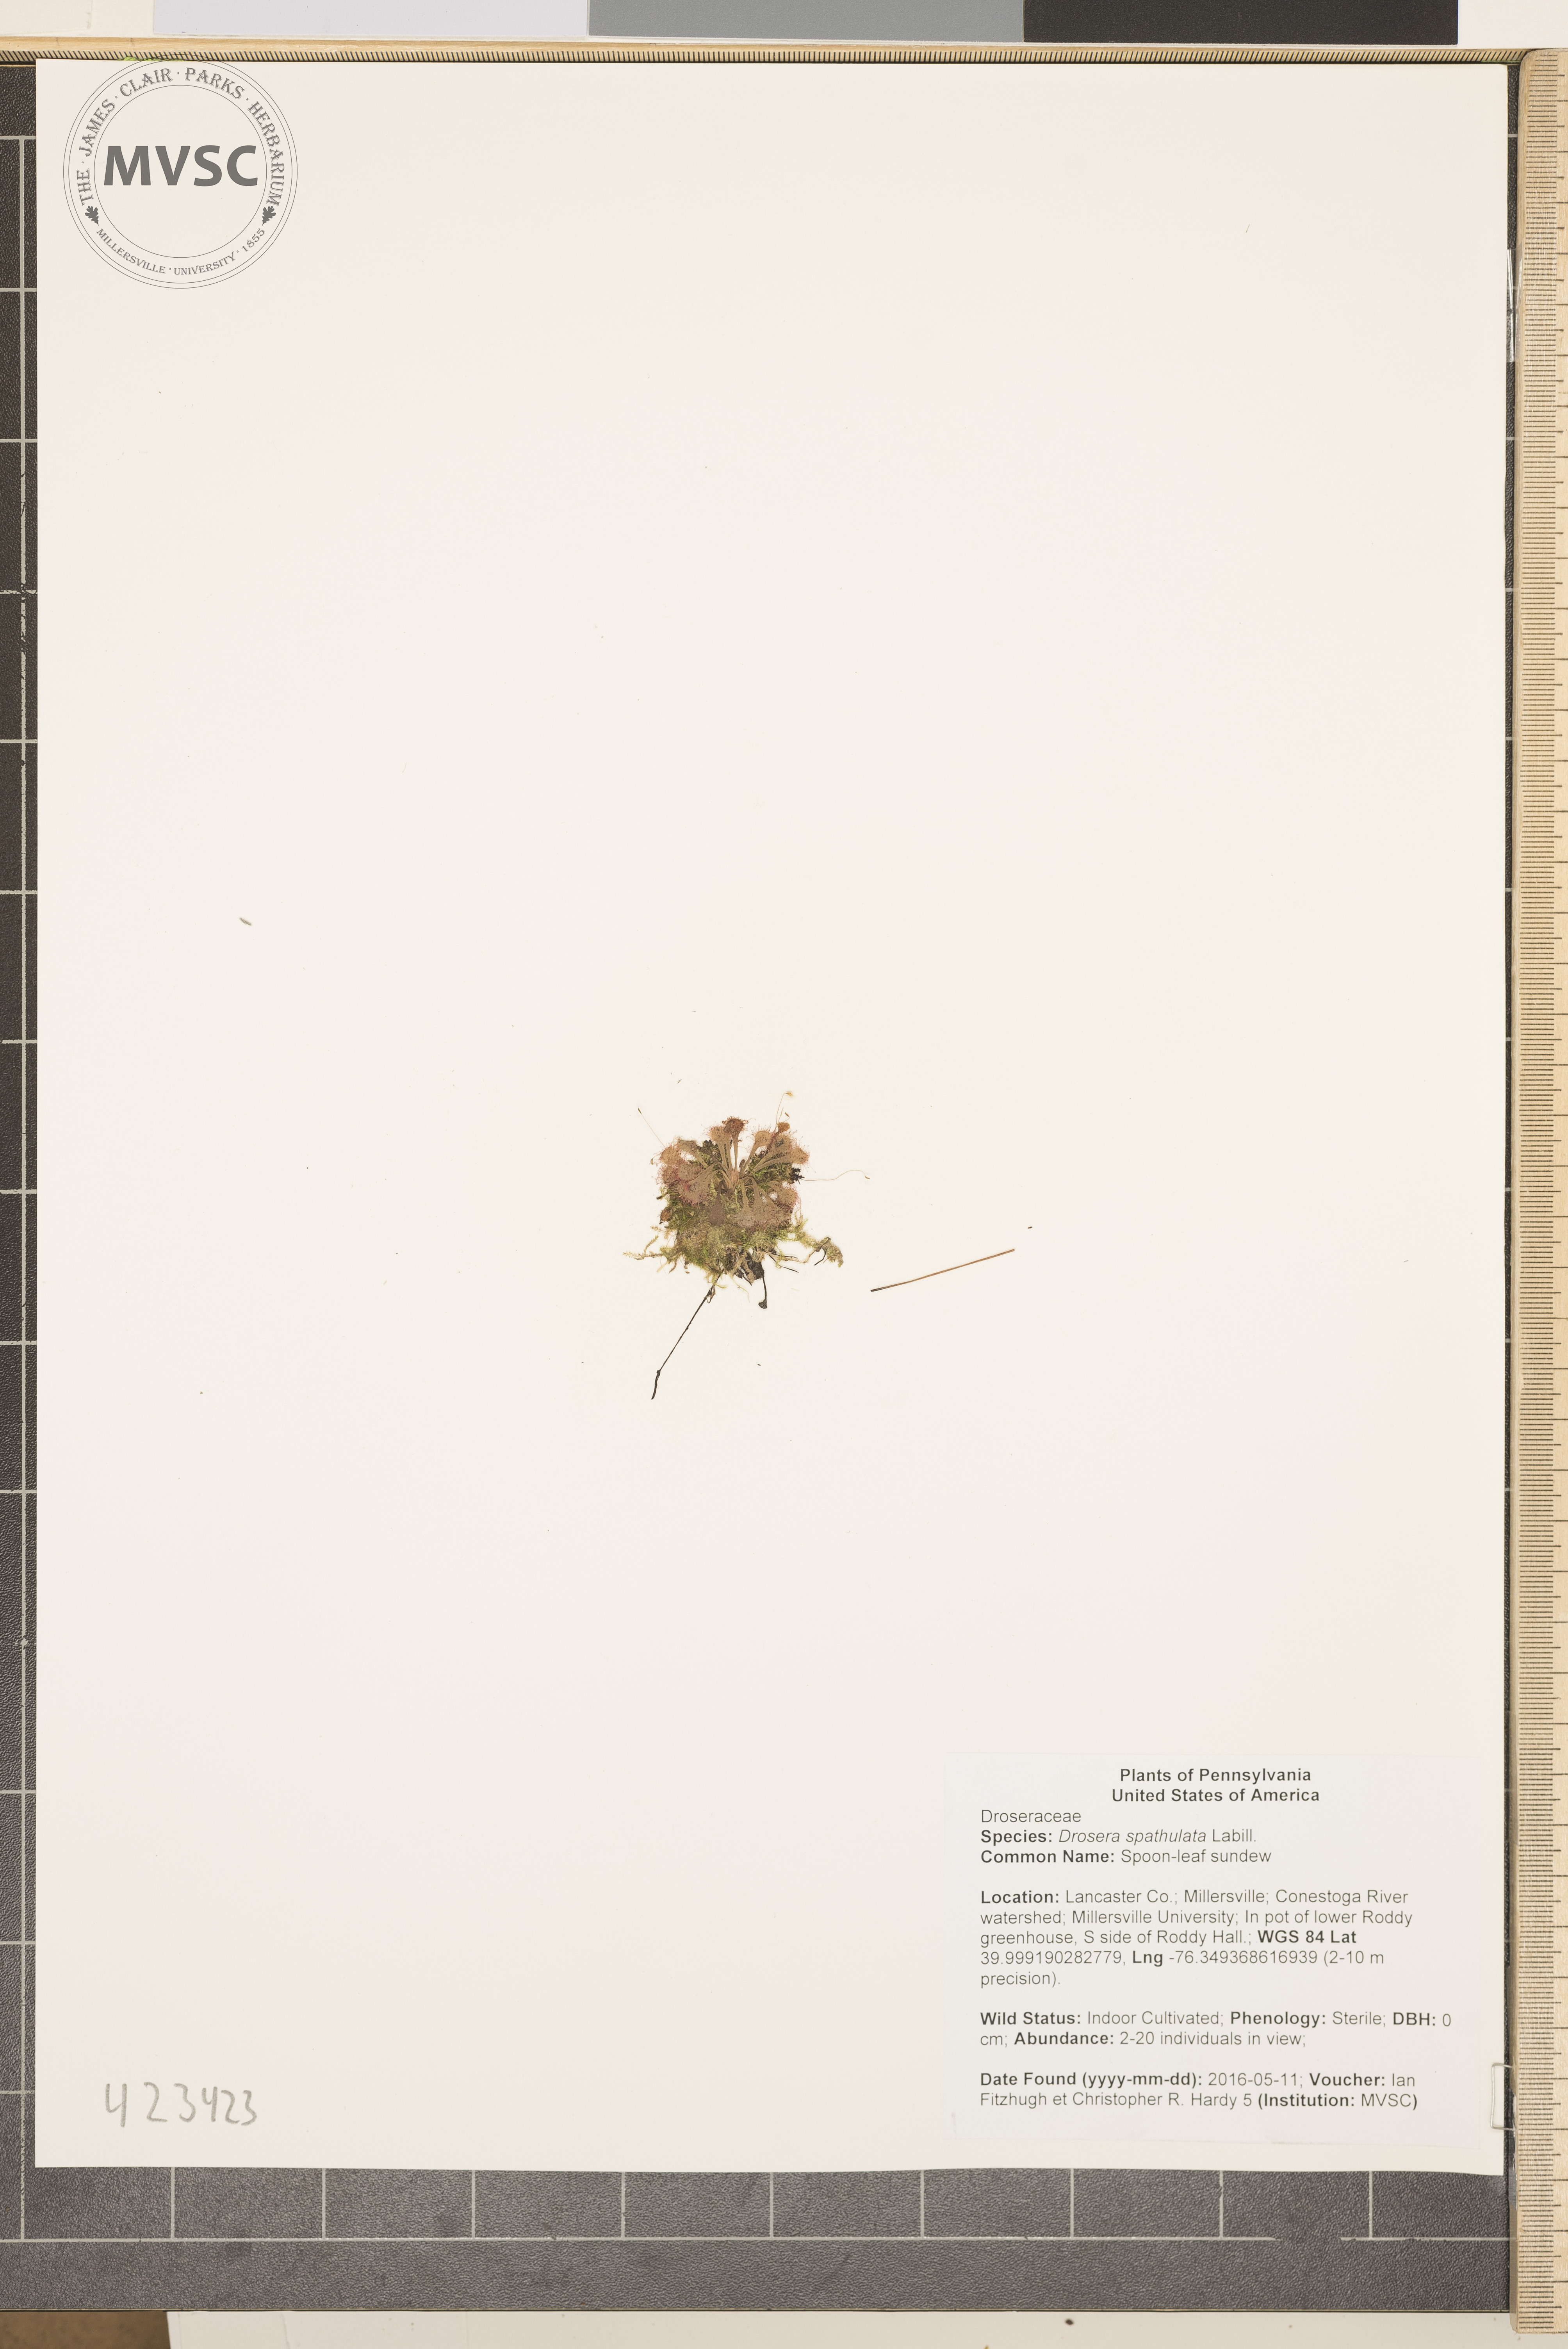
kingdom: Plantae
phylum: Tracheophyta
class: Magnoliopsida
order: Caryophyllales
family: Droseraceae
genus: Drosera
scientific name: Drosera spatulata
